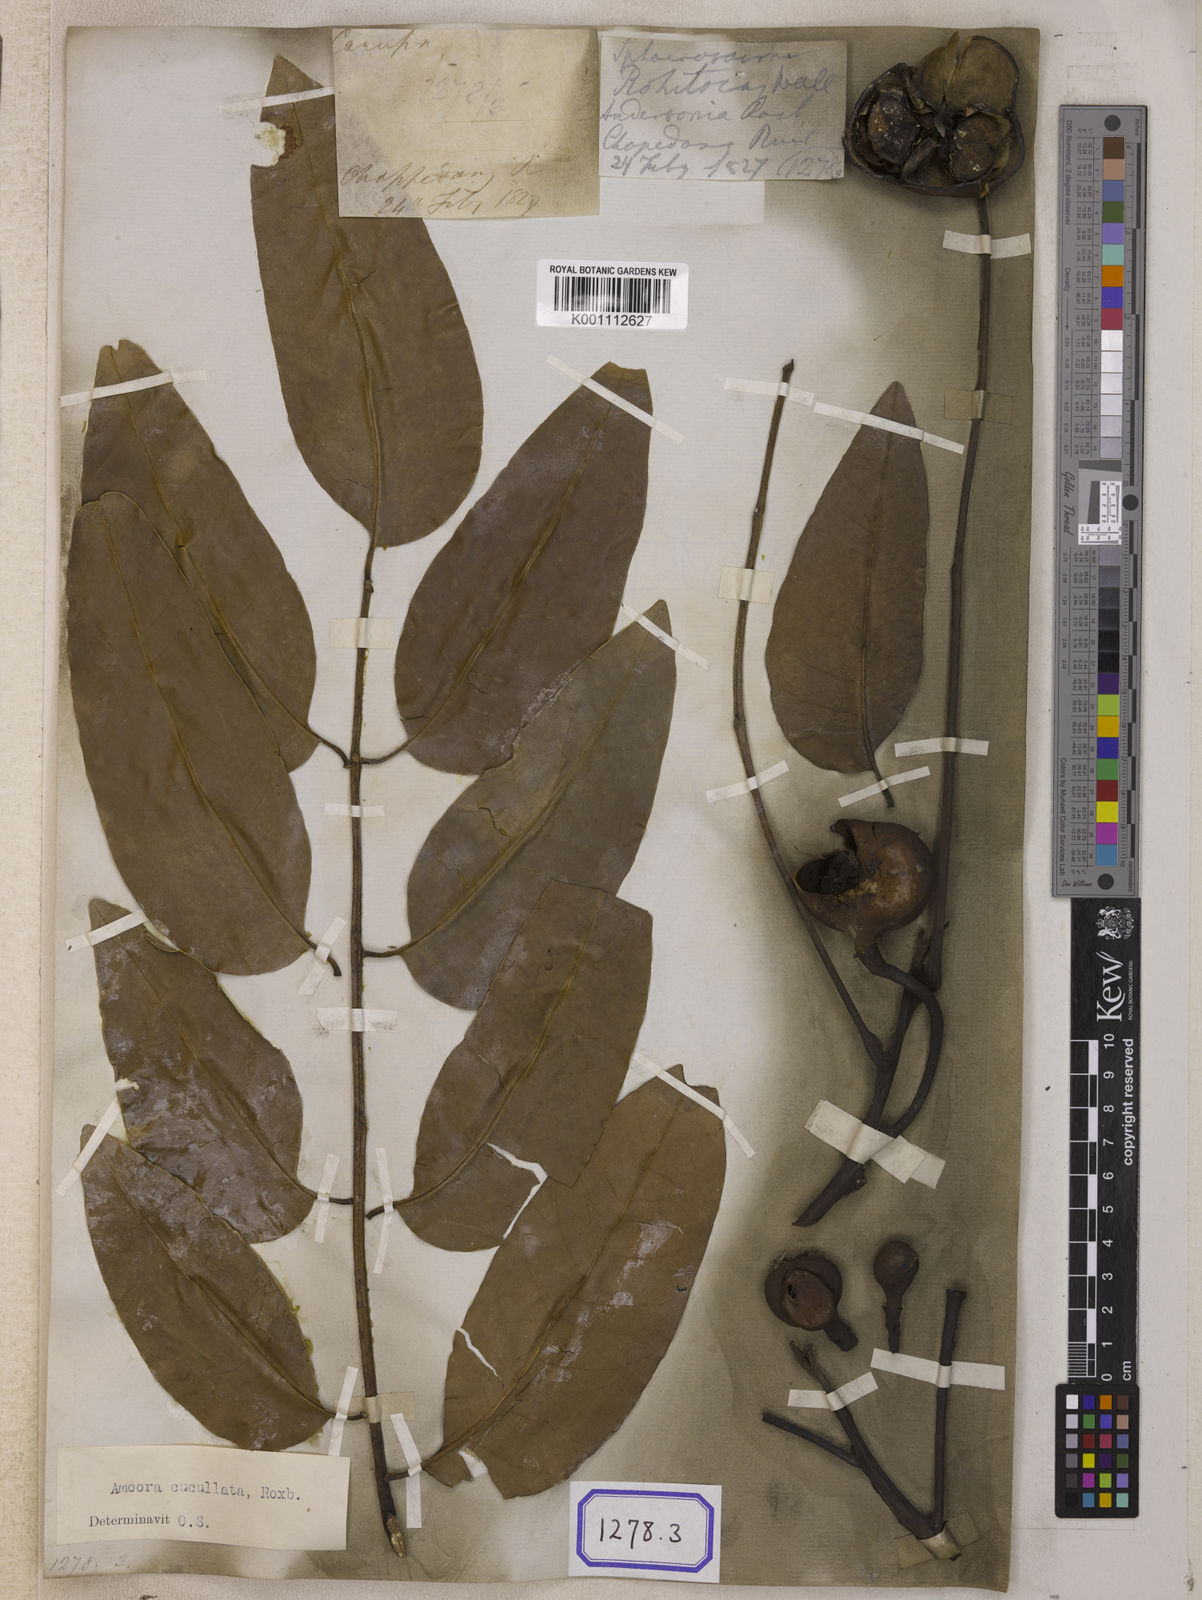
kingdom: Plantae
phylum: Tracheophyta
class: Magnoliopsida
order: Sapindales
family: Meliaceae
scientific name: Meliaceae
